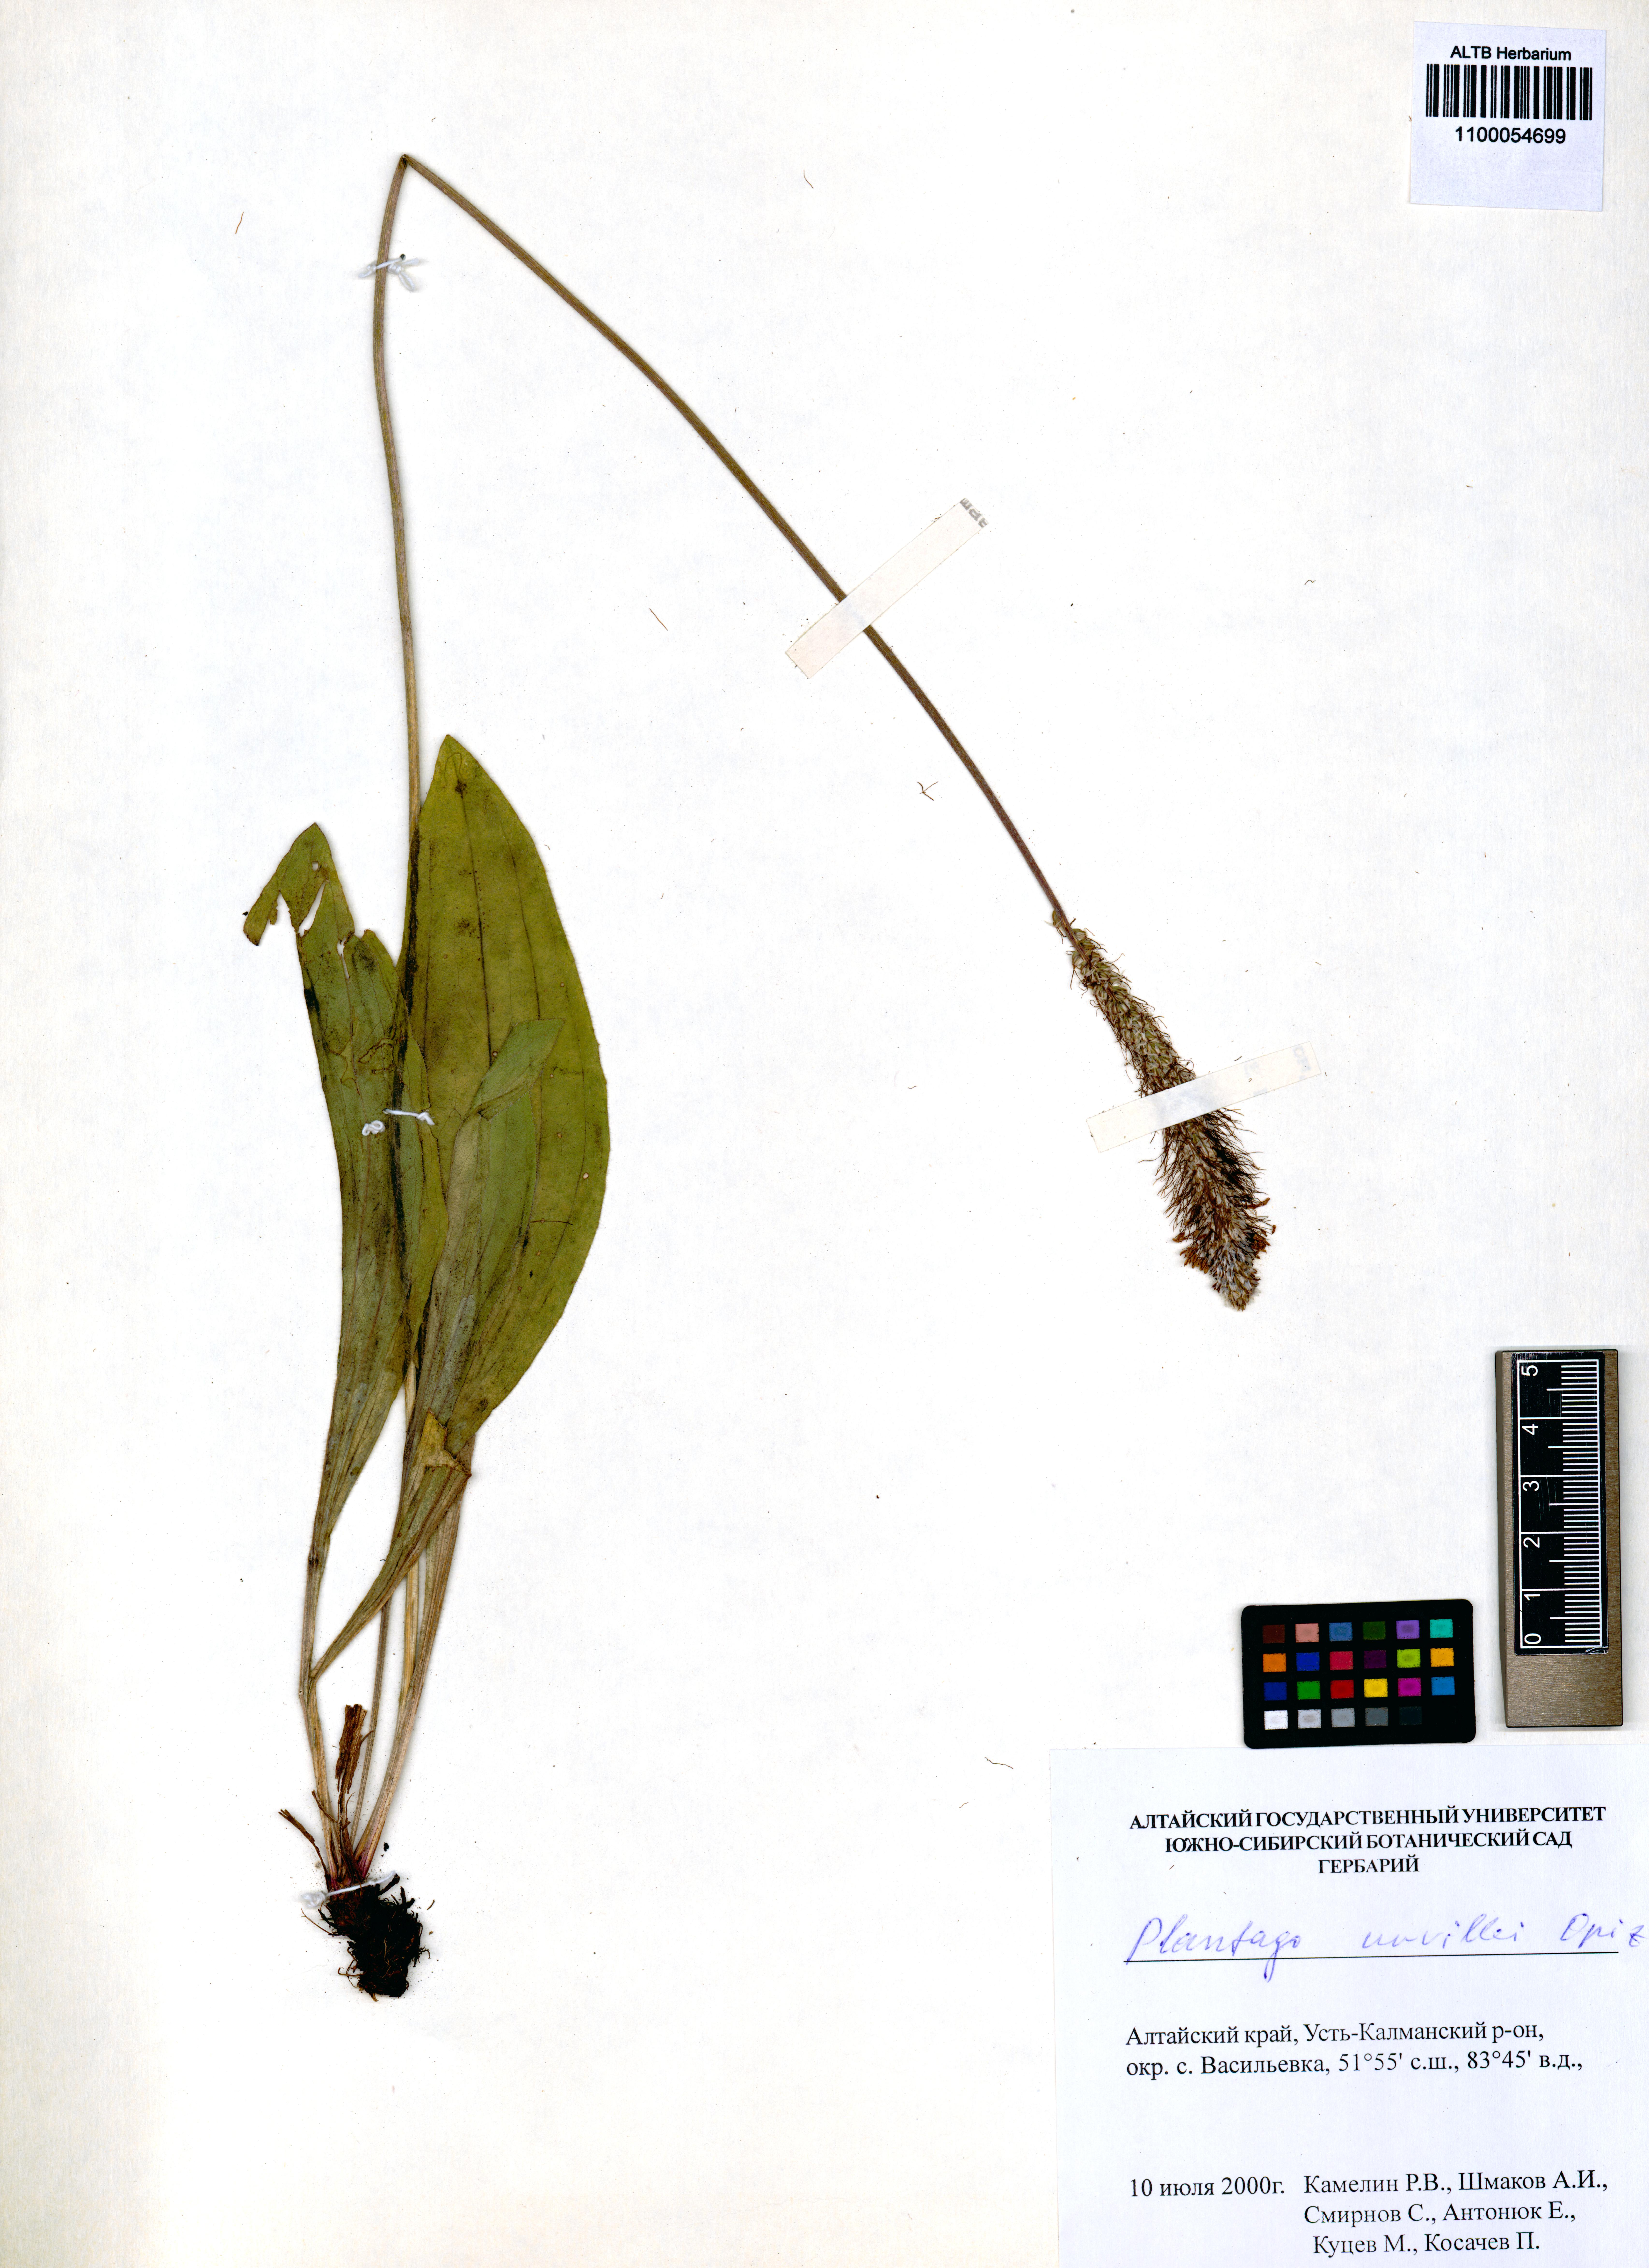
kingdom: Plantae
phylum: Tracheophyta
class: Magnoliopsida
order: Lamiales
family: Plantaginaceae
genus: Plantago
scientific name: Plantago urvillei
